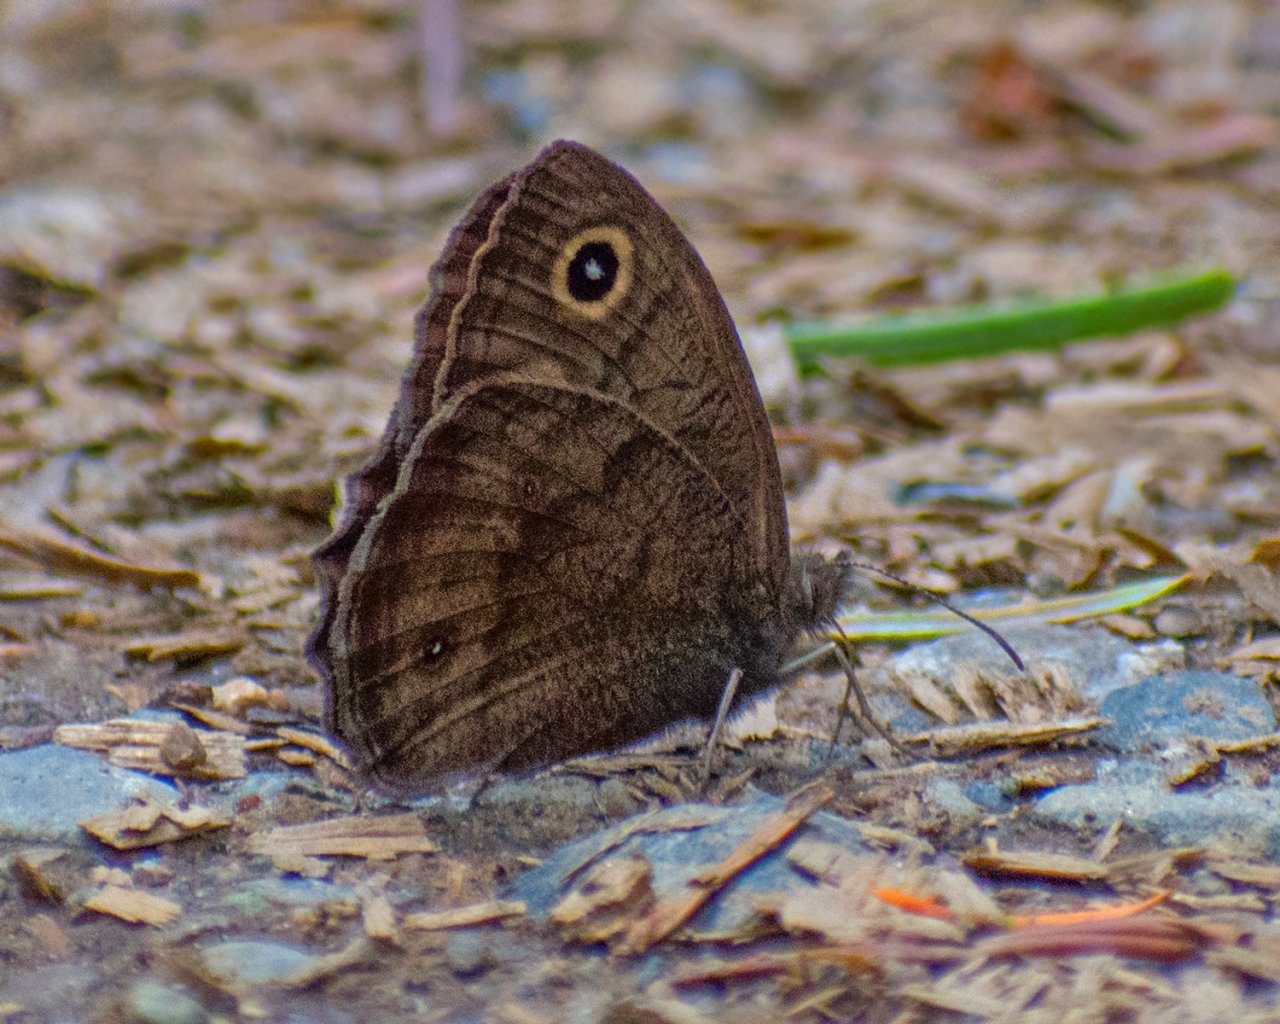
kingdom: Animalia
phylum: Arthropoda
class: Insecta
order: Lepidoptera
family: Nymphalidae
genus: Cercyonis
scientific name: Cercyonis pegala
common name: Common Wood-Nymph
